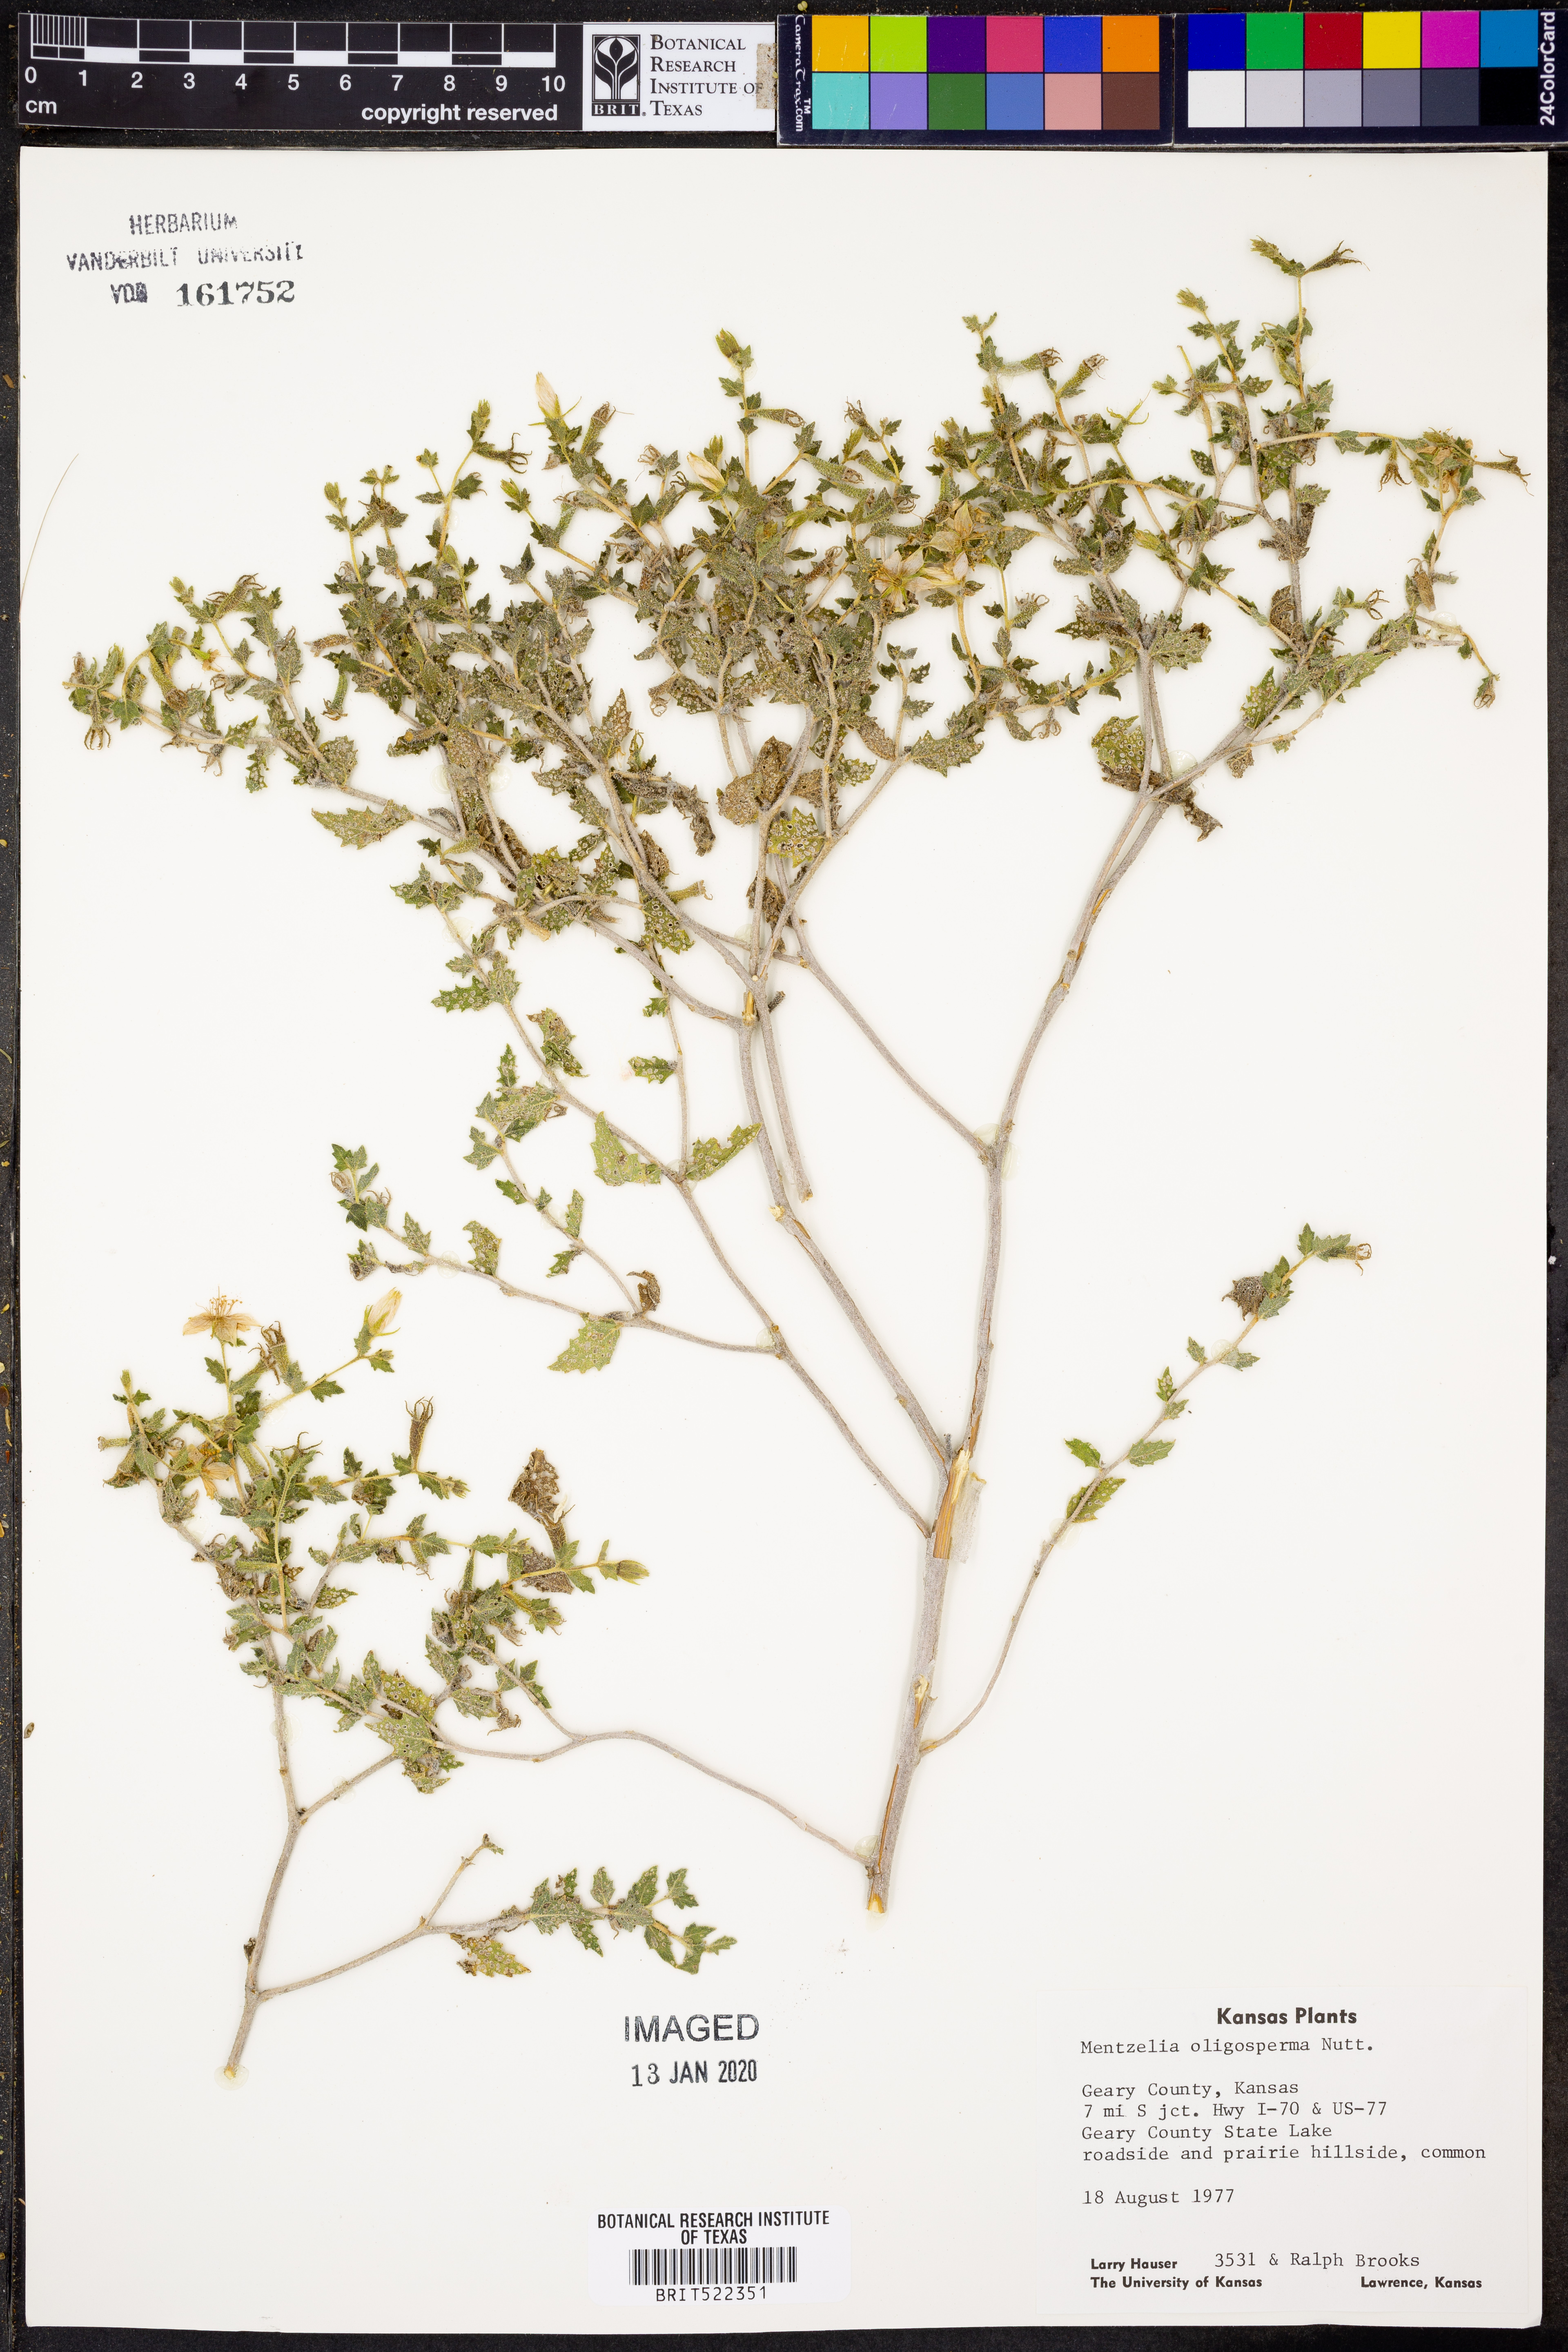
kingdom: Plantae
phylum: Tracheophyta
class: Magnoliopsida
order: Cornales
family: Loasaceae
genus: Mentzelia
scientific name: Mentzelia oligosperma
